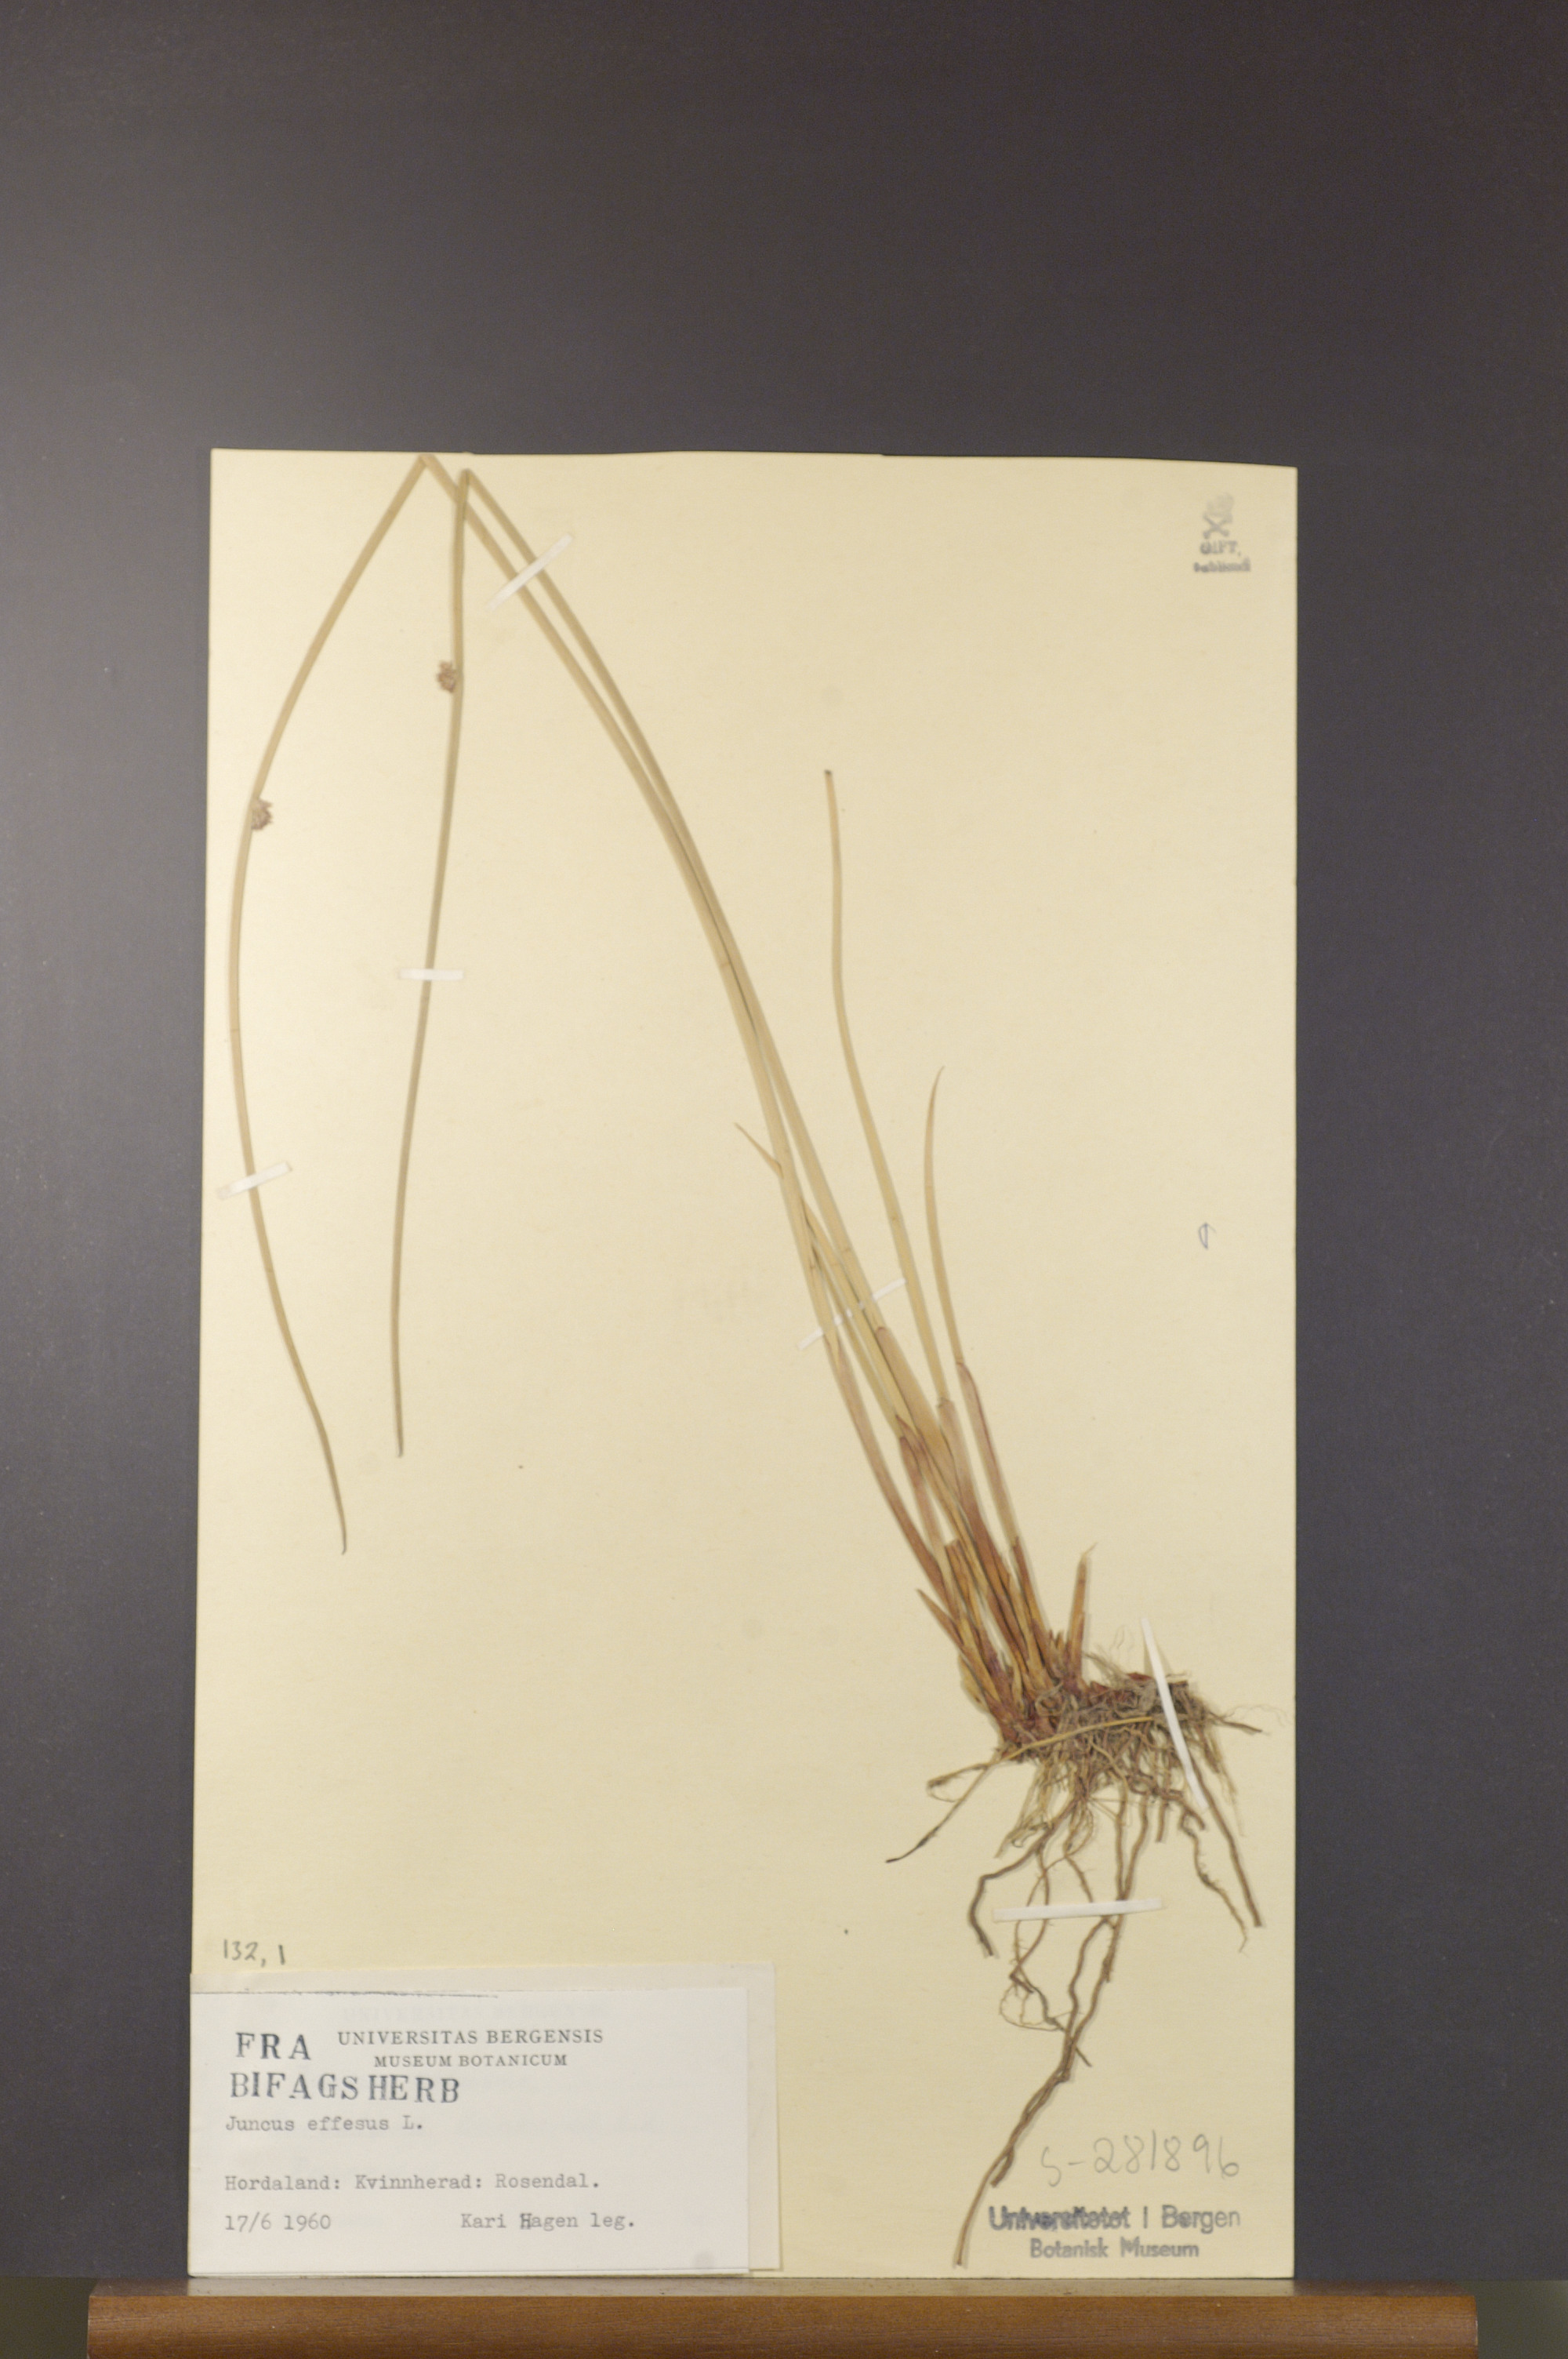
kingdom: Plantae
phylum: Tracheophyta
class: Liliopsida
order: Poales
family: Juncaceae
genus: Juncus
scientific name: Juncus effusus
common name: Soft rush
